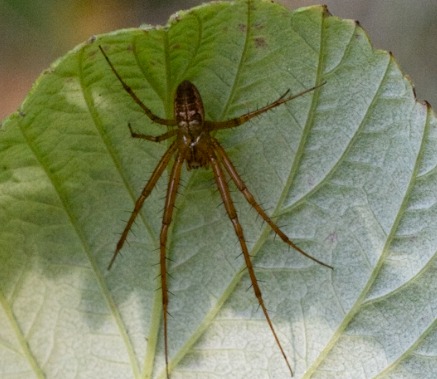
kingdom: Animalia
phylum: Arthropoda
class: Arachnida
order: Araneae
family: Tetragnathidae
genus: Metellina
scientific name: Metellina
